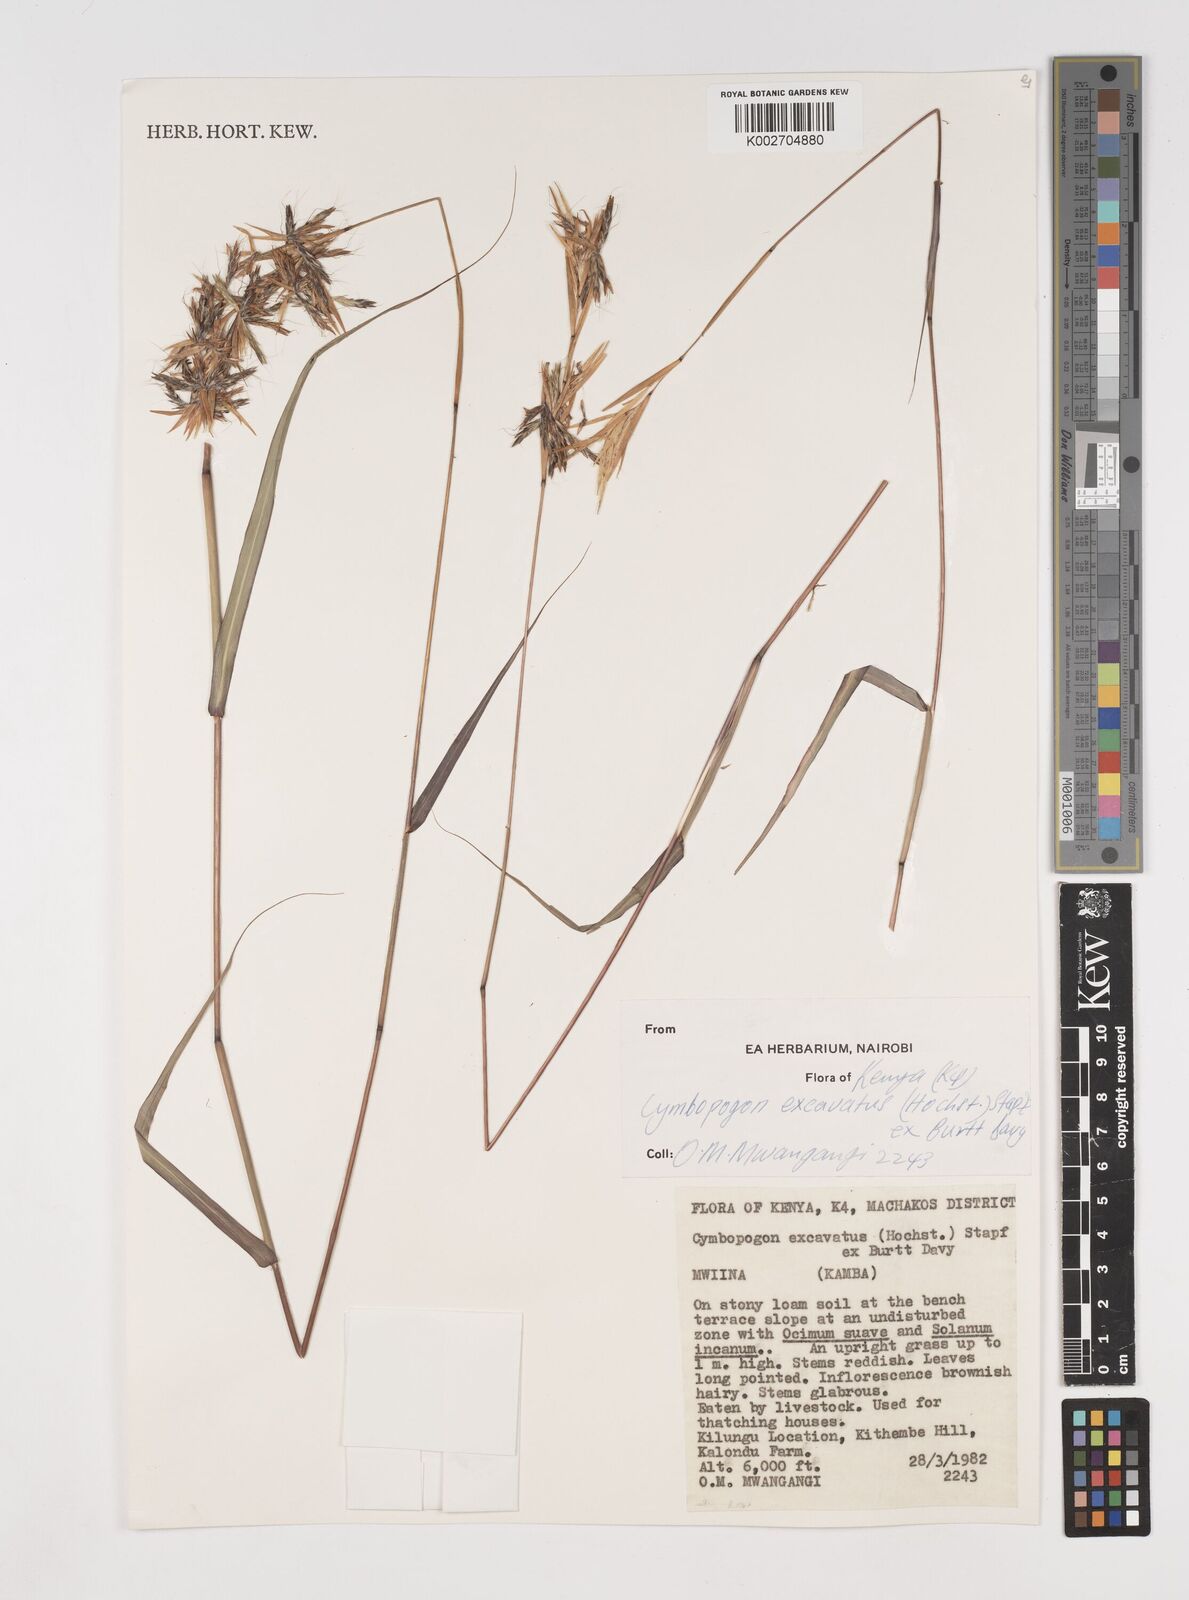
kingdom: Plantae
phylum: Tracheophyta
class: Liliopsida
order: Poales
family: Poaceae
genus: Cymbopogon
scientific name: Cymbopogon caesius
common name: Kachi grass
